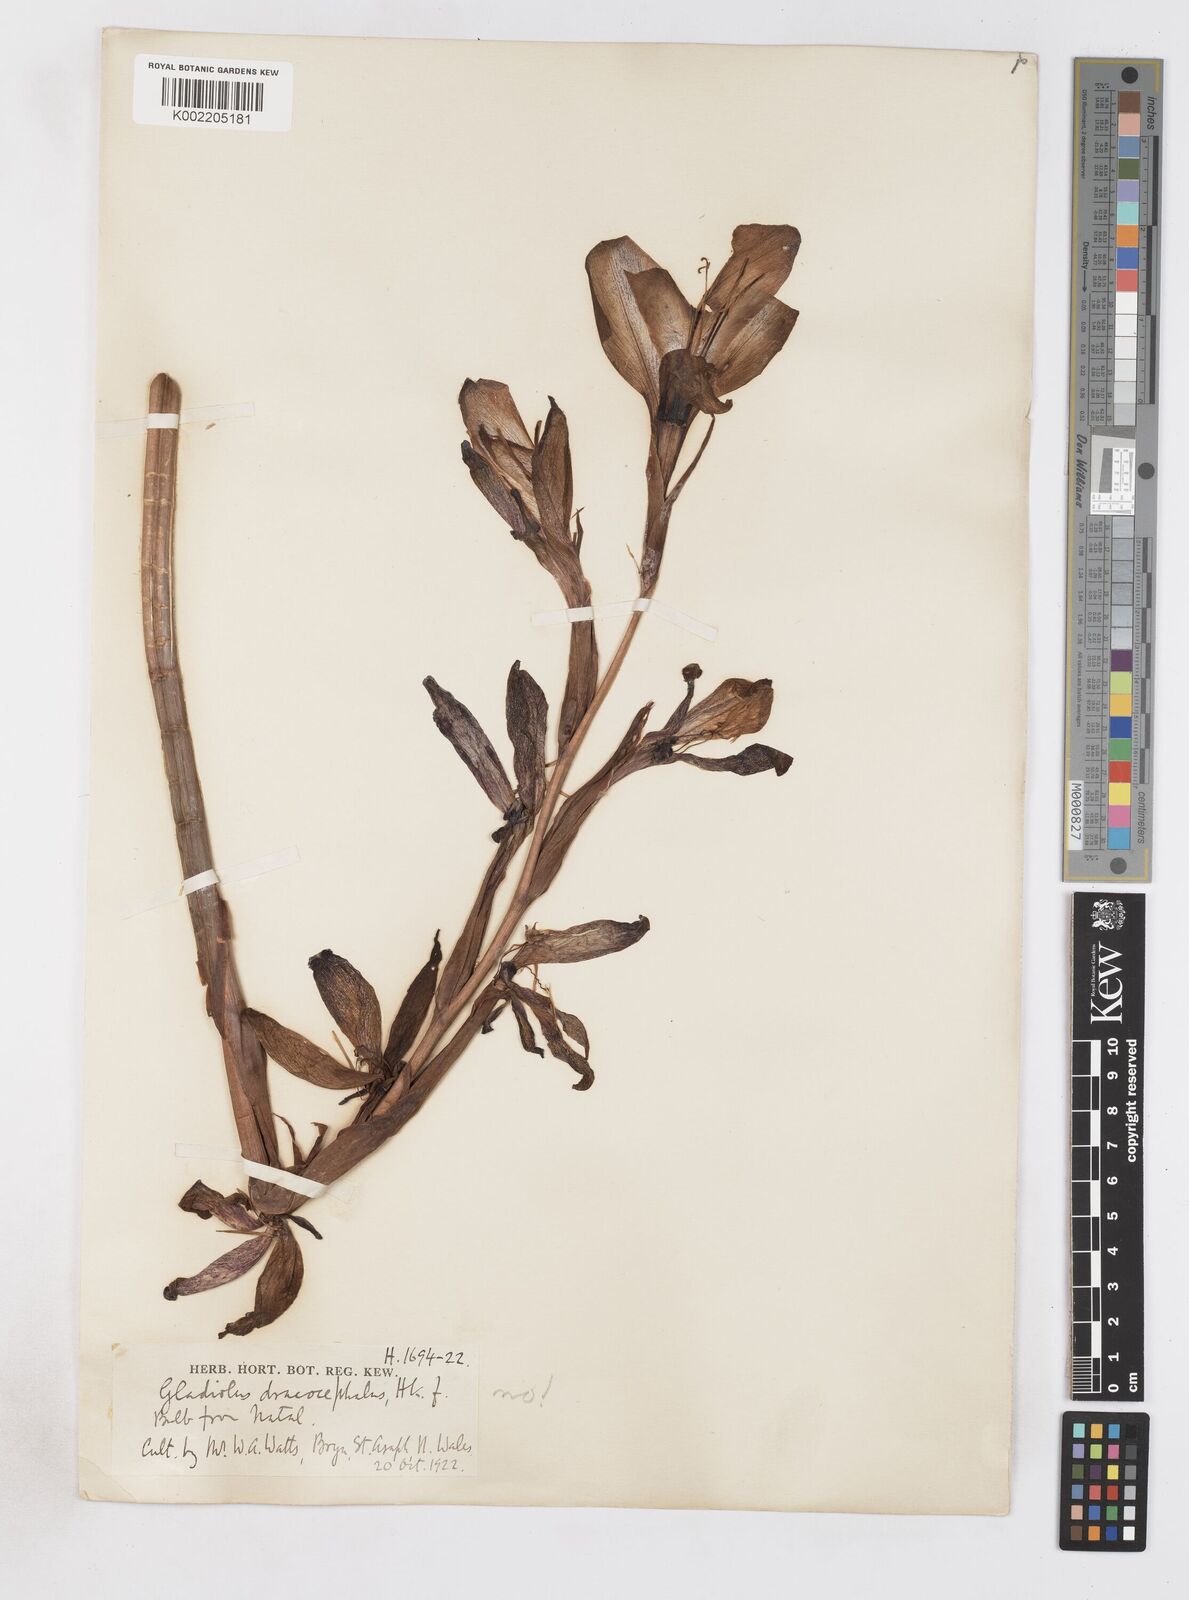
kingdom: Plantae
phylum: Tracheophyta
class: Liliopsida
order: Asparagales
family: Iridaceae
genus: Gladiolus
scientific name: Gladiolus dalenii
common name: Cornflag
